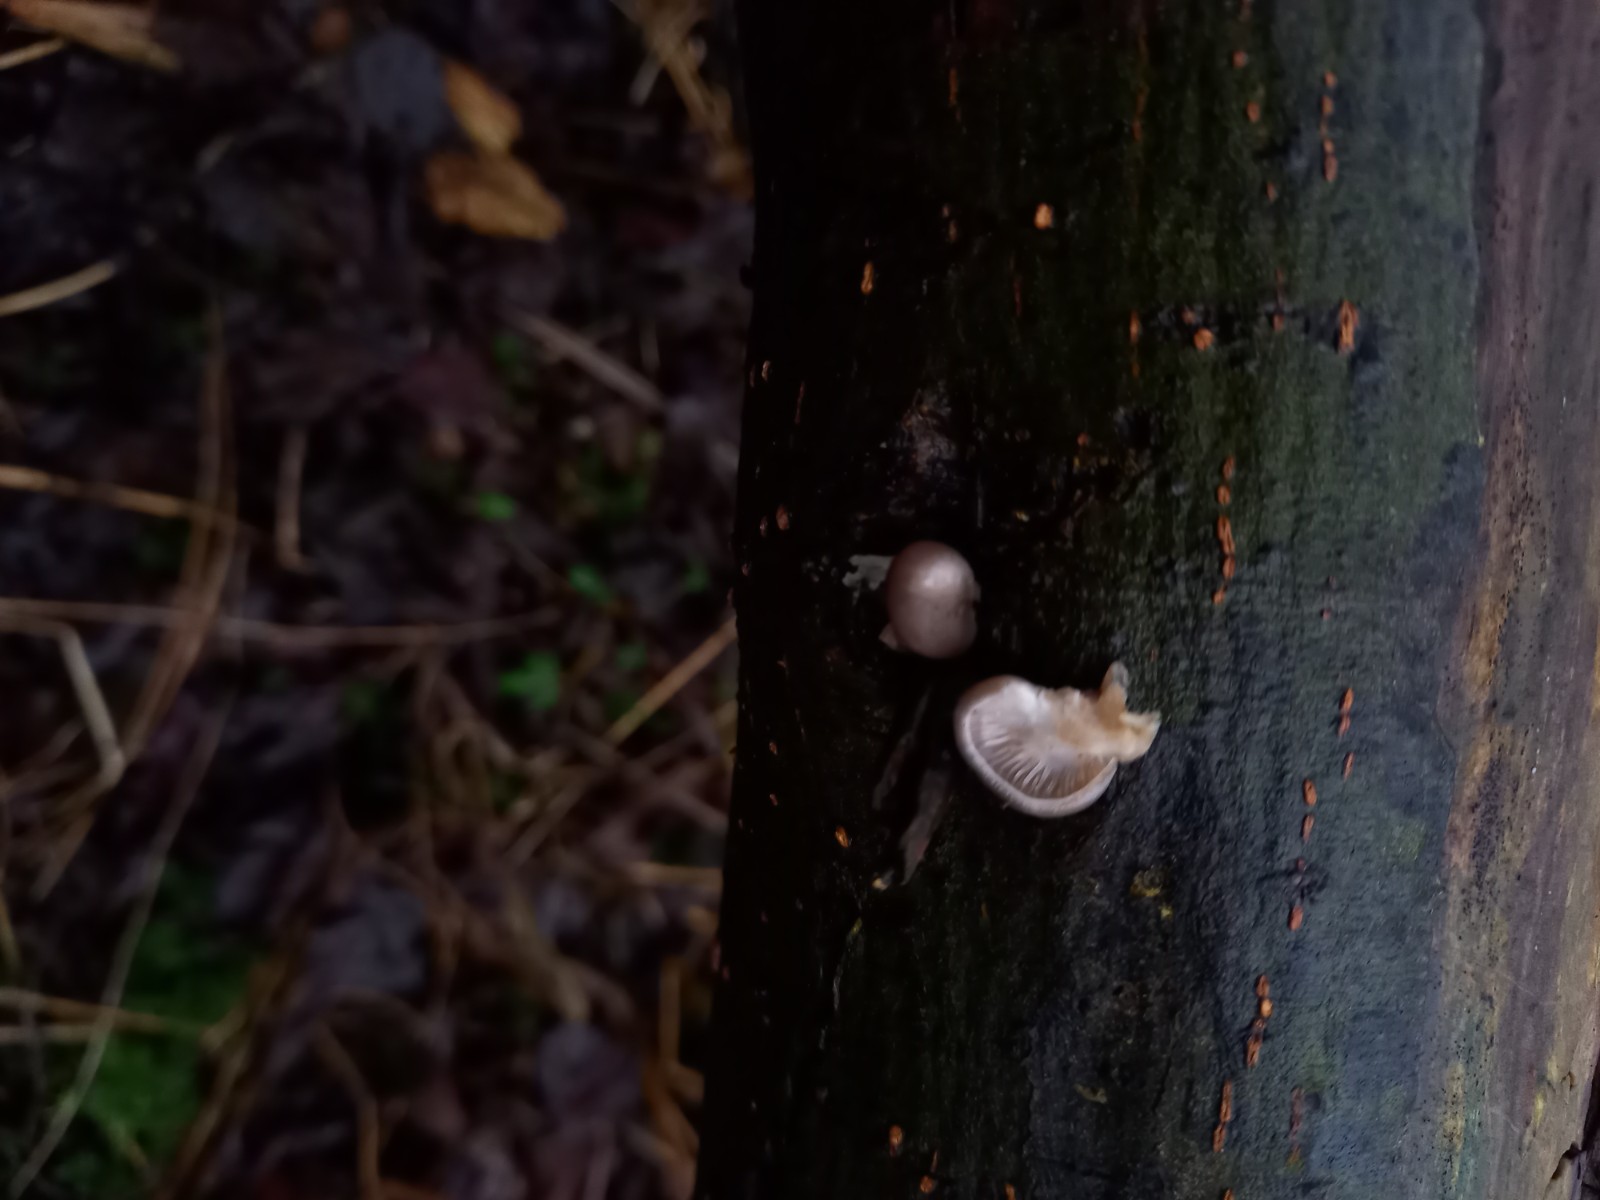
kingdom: Fungi
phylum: Basidiomycota
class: Agaricomycetes
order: Agaricales
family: Pleurotaceae
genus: Pleurotus
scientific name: Pleurotus ostreatus
